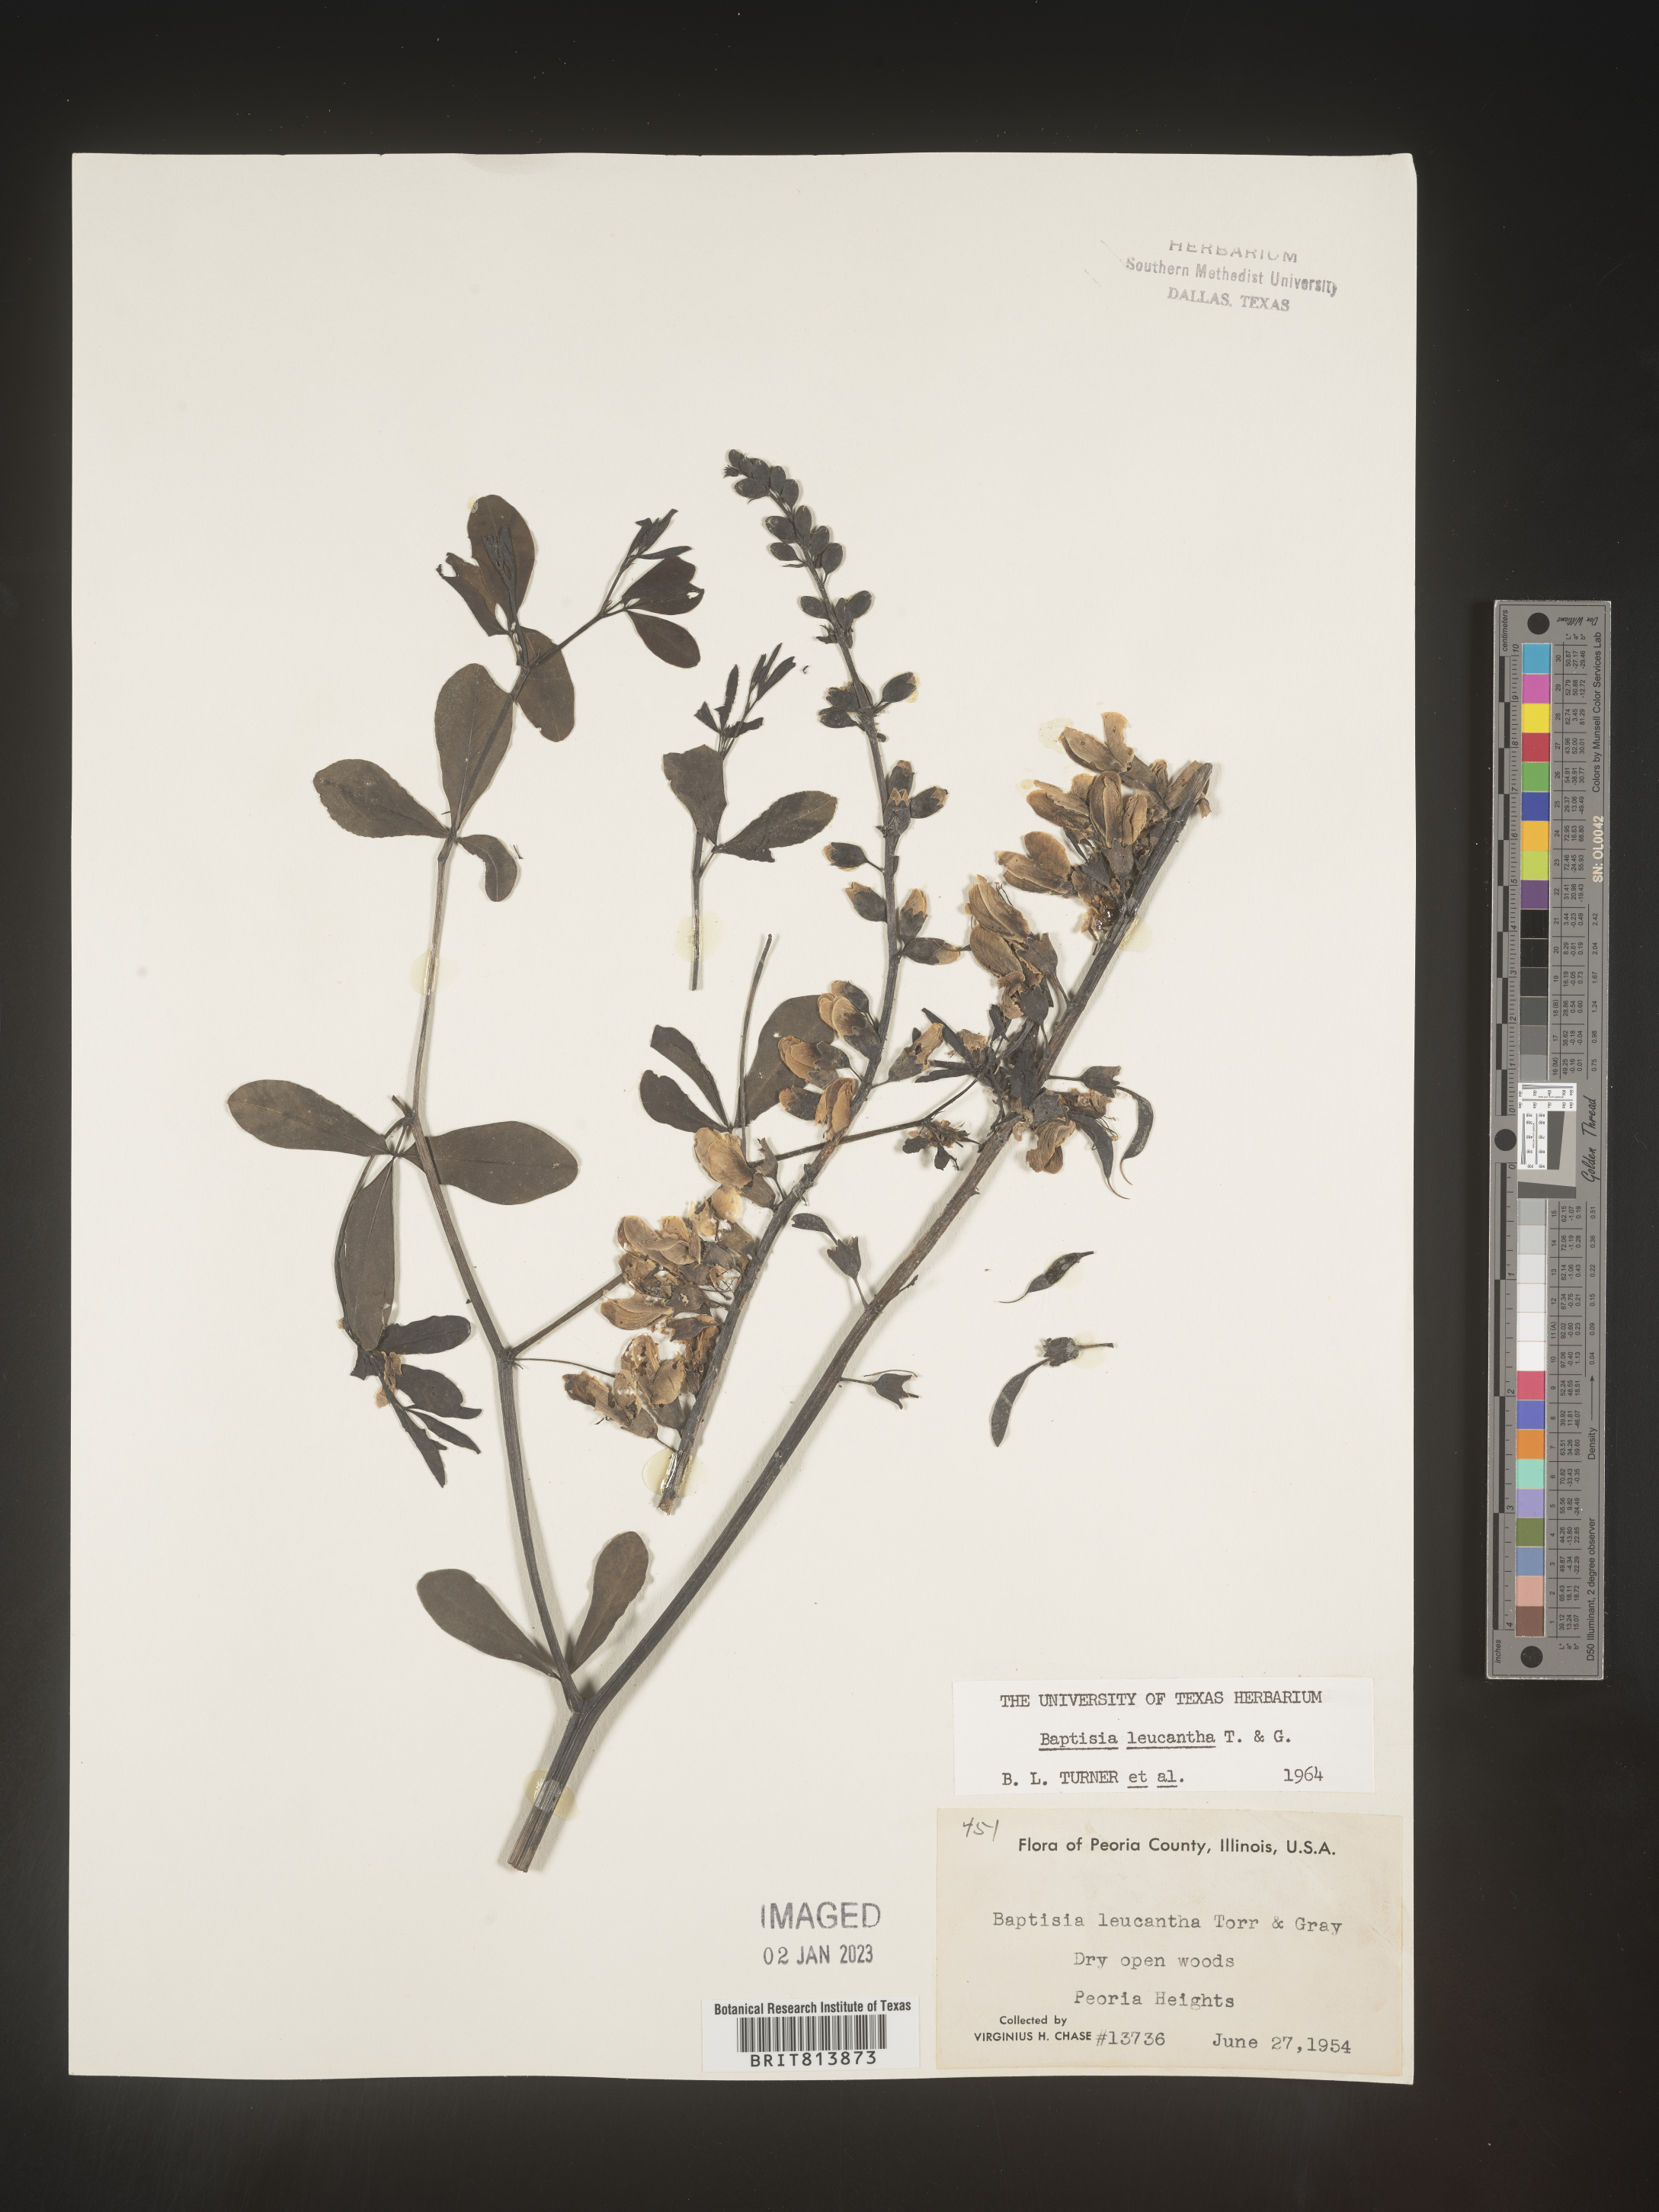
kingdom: Plantae
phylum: Tracheophyta
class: Magnoliopsida
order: Fabales
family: Fabaceae
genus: Baptisia
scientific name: Baptisia alba
